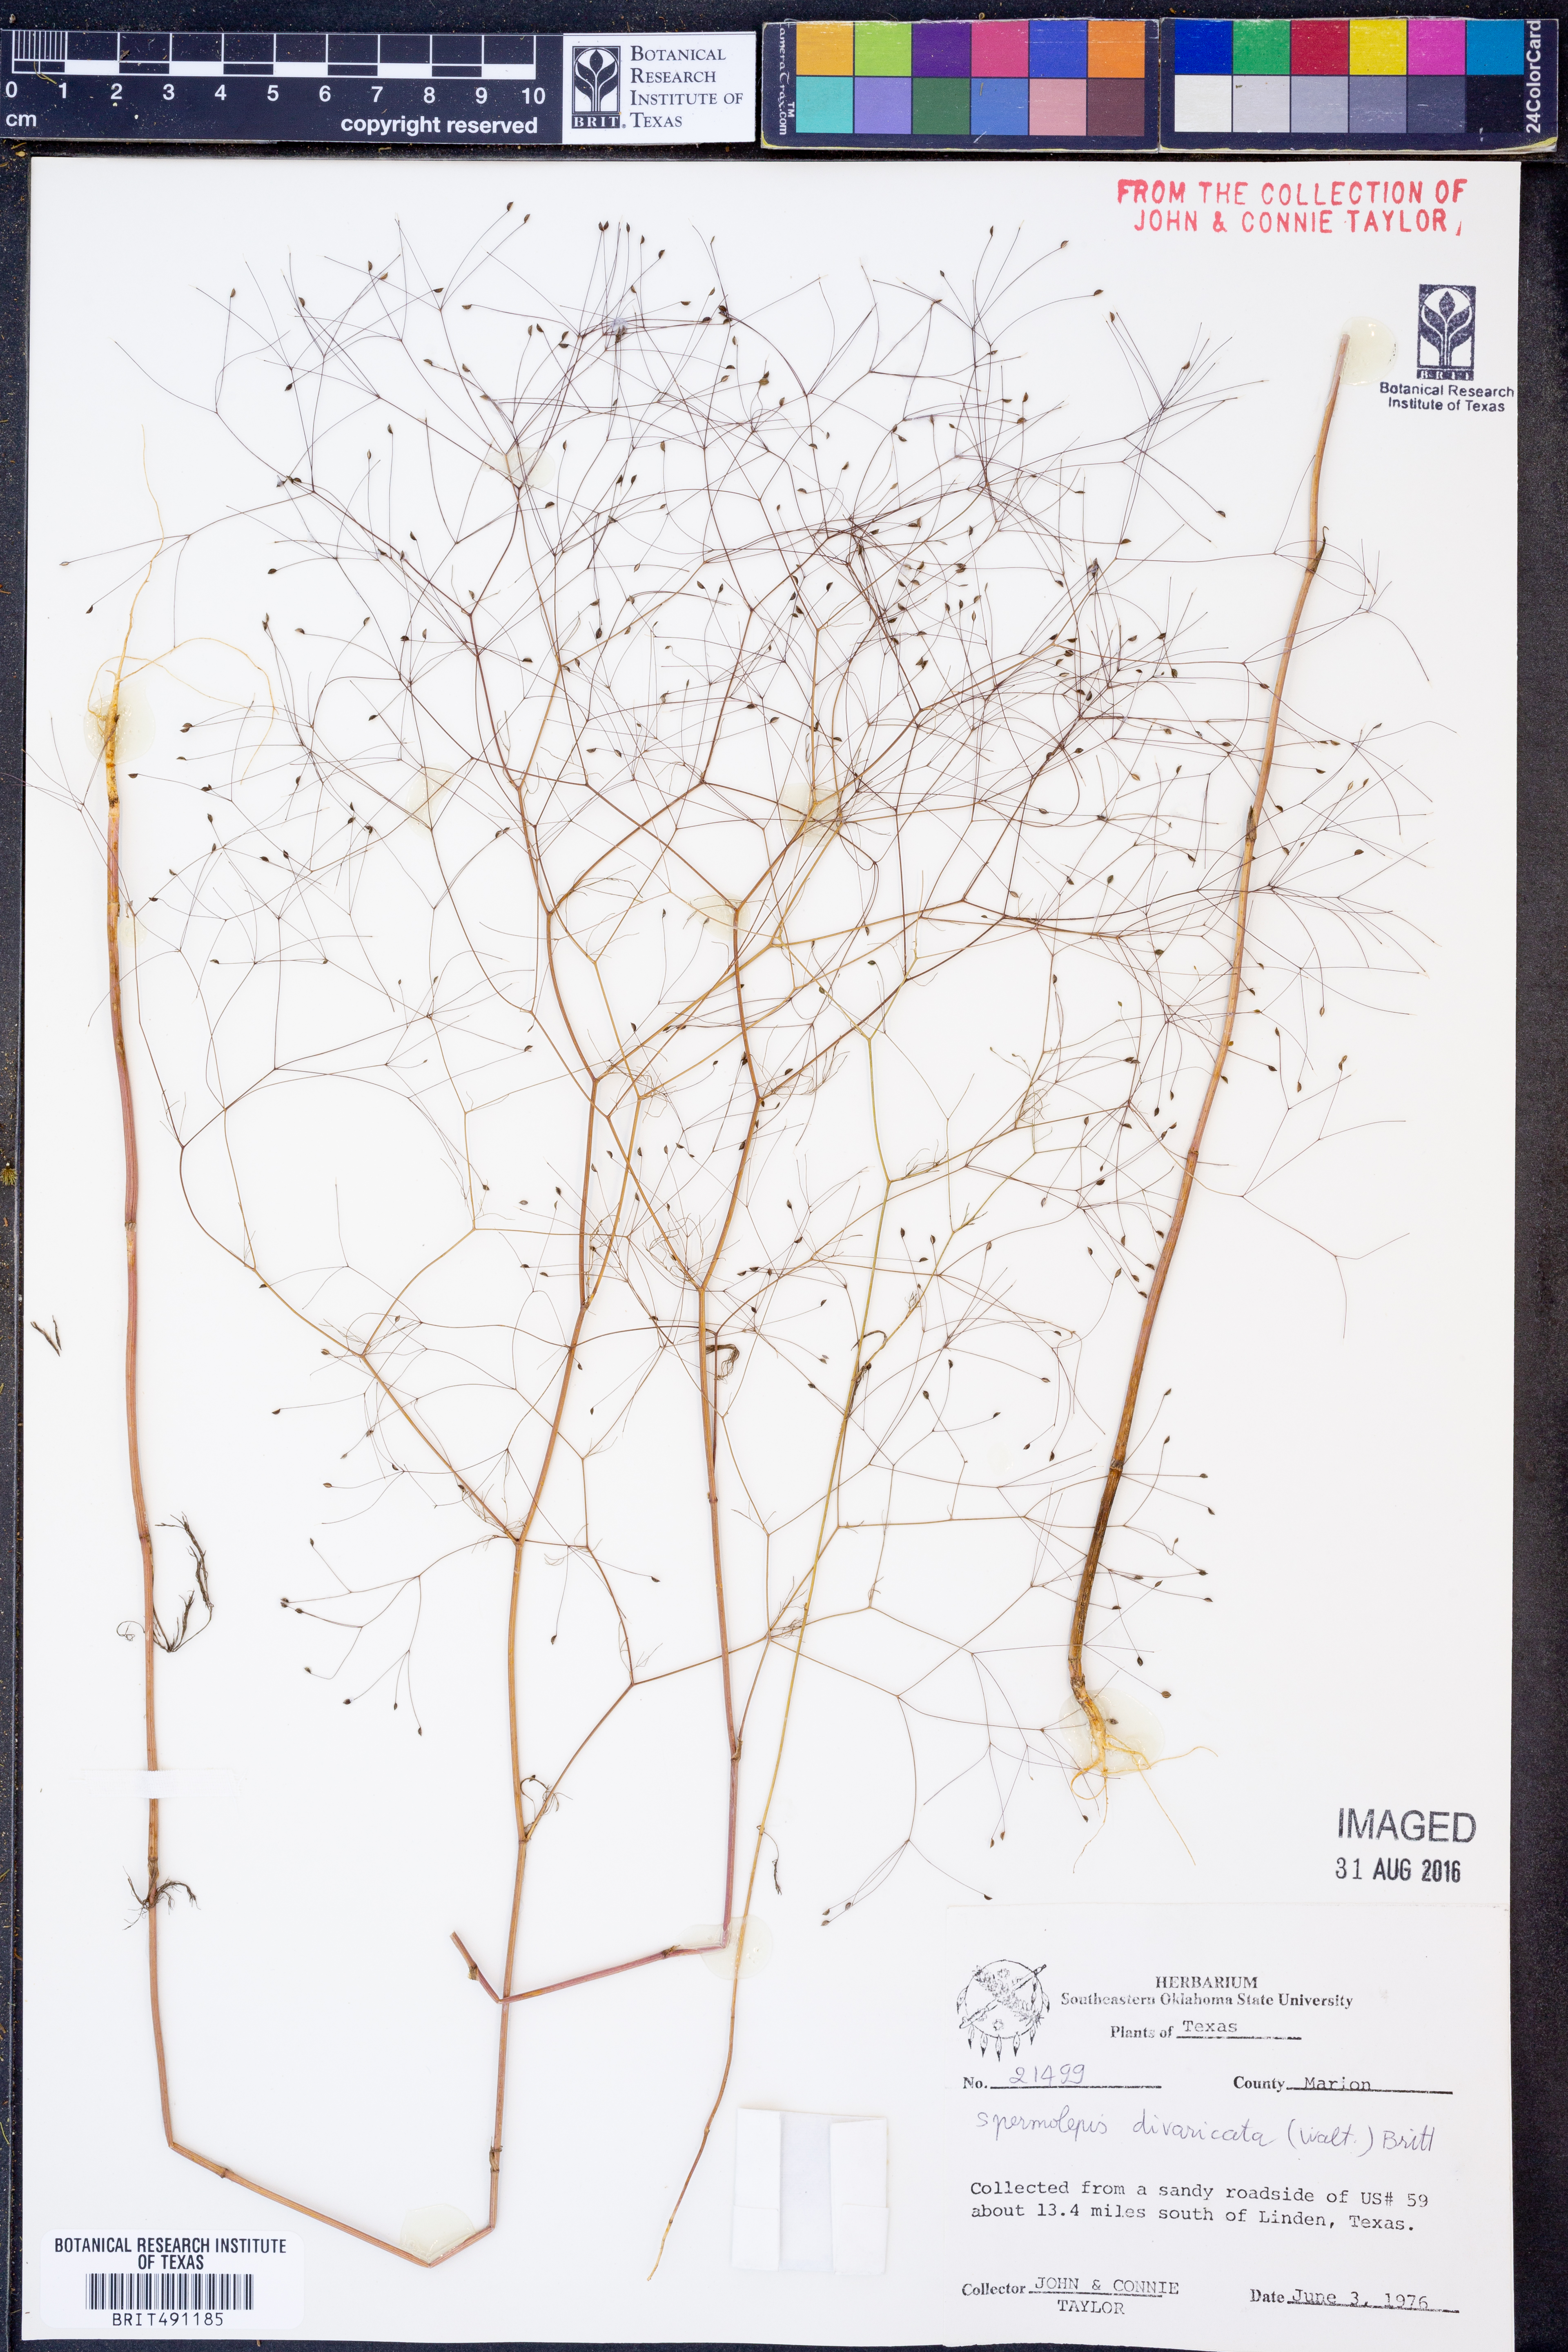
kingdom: Plantae
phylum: Tracheophyta
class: Magnoliopsida
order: Apiales
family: Apiaceae
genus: Spermolepis
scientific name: Spermolepis divaricata
